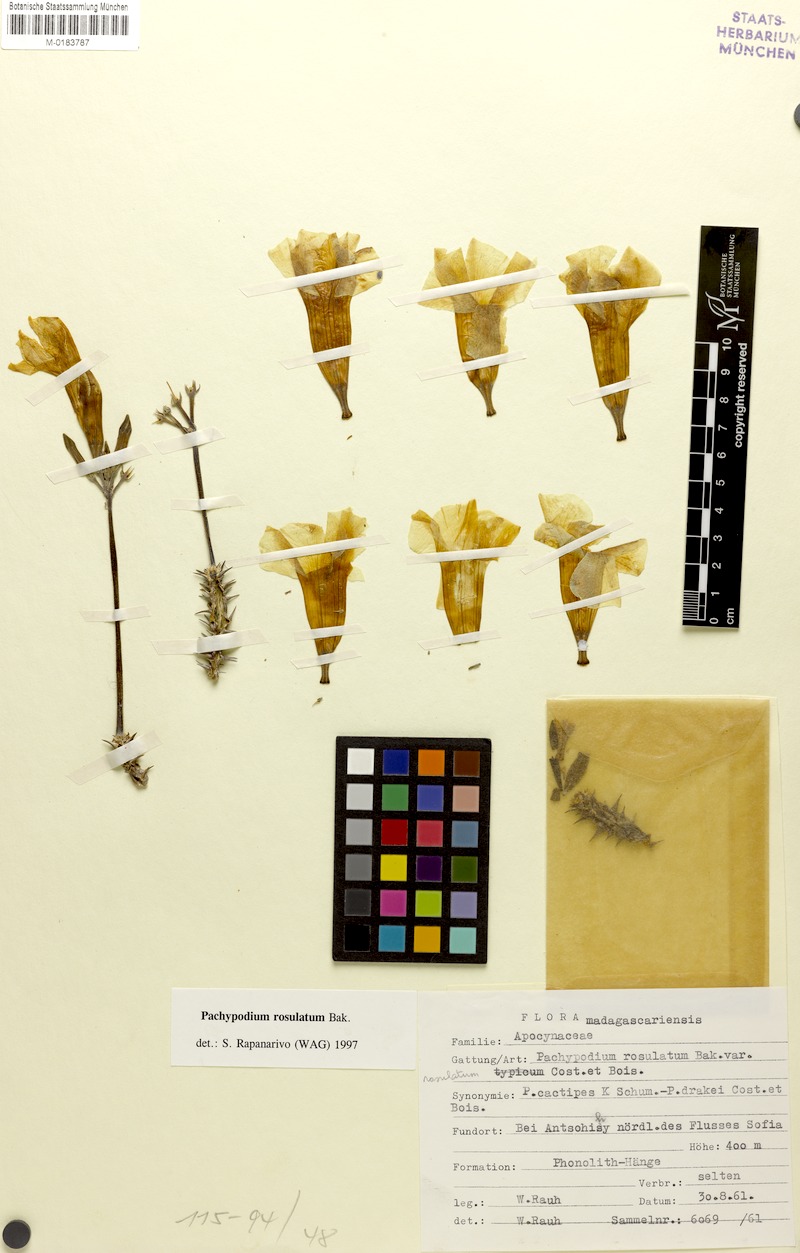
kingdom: Plantae
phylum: Tracheophyta
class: Magnoliopsida
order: Gentianales
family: Apocynaceae
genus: Pachypodium
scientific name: Pachypodium rosulatum
